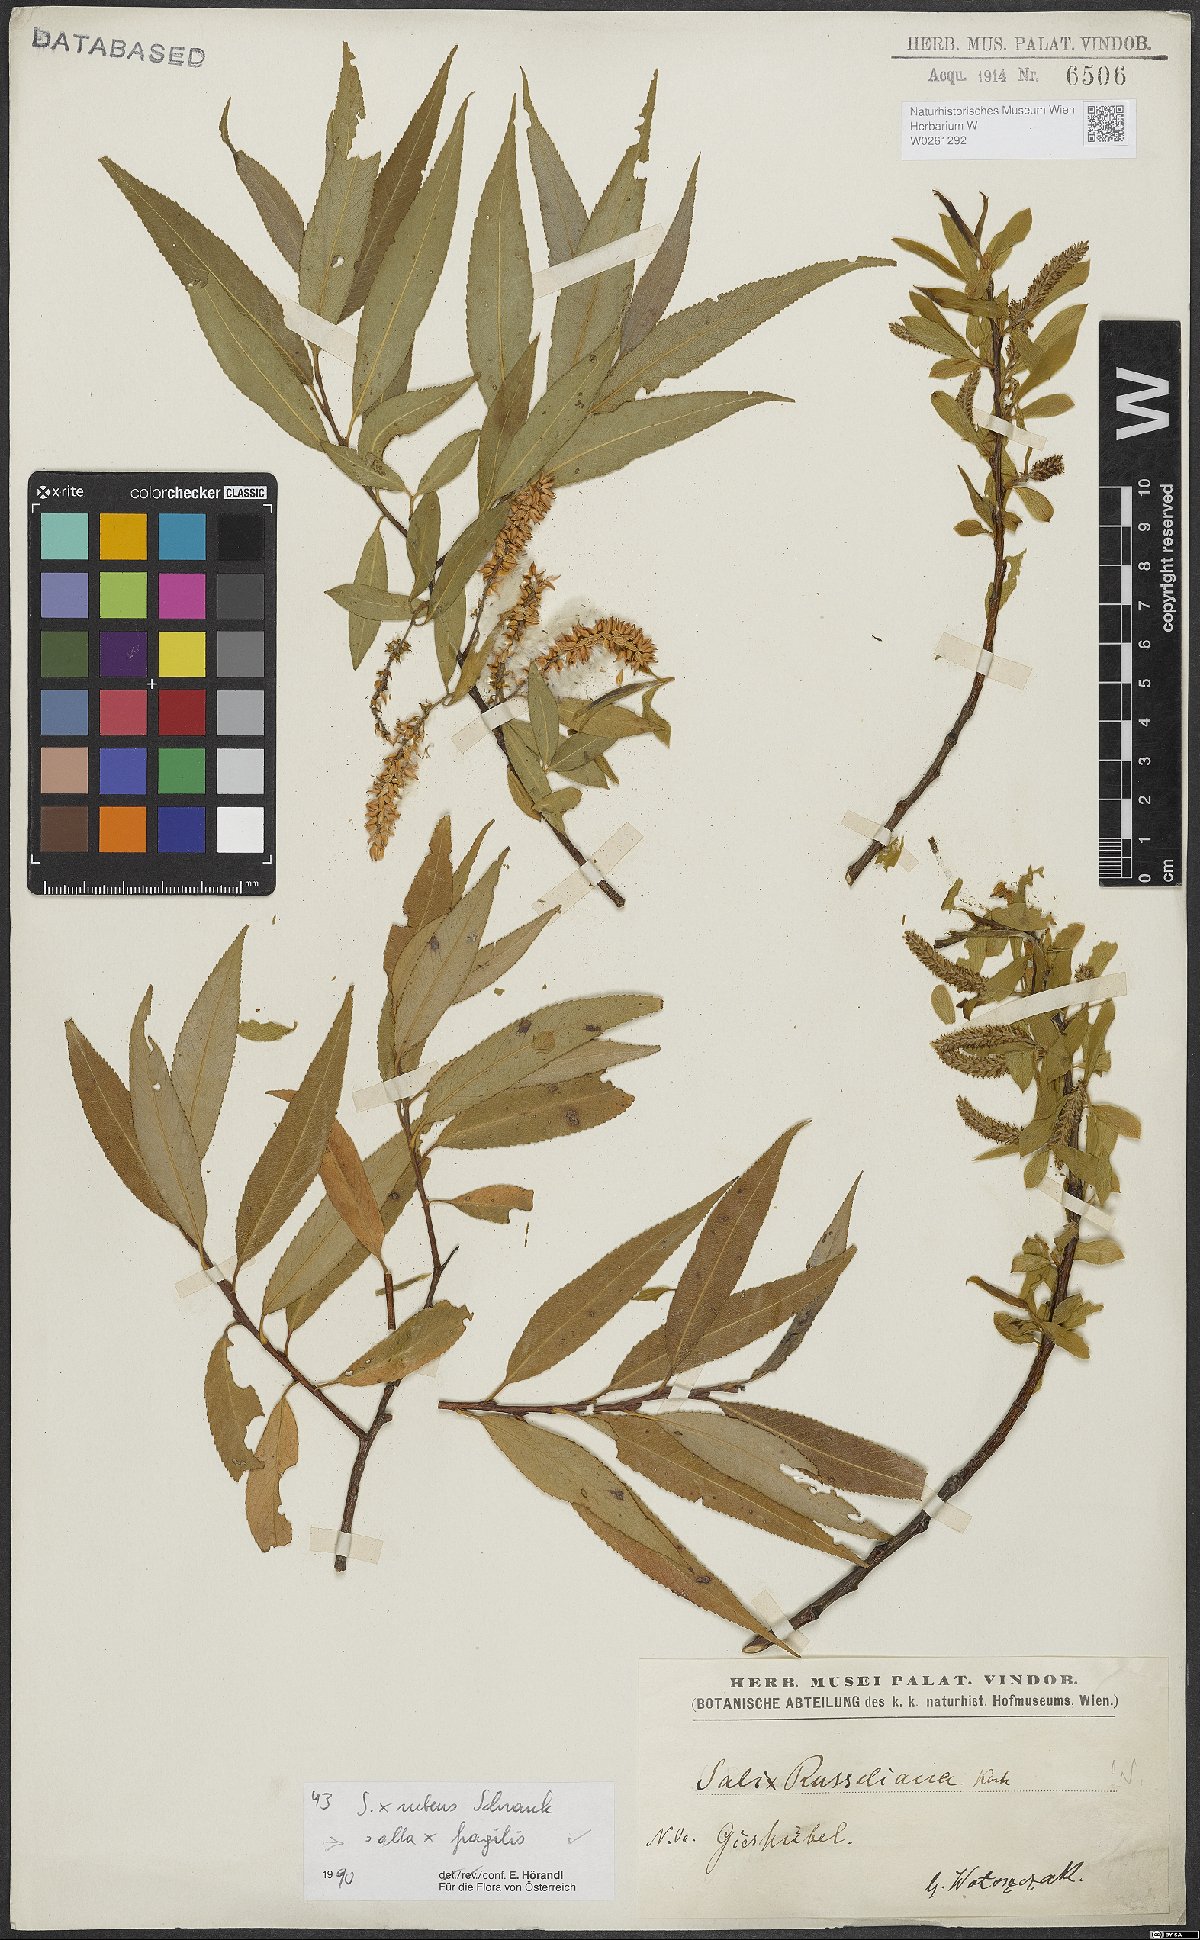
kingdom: Plantae
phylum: Tracheophyta
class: Magnoliopsida
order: Malpighiales
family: Salicaceae
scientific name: Salicaceae
